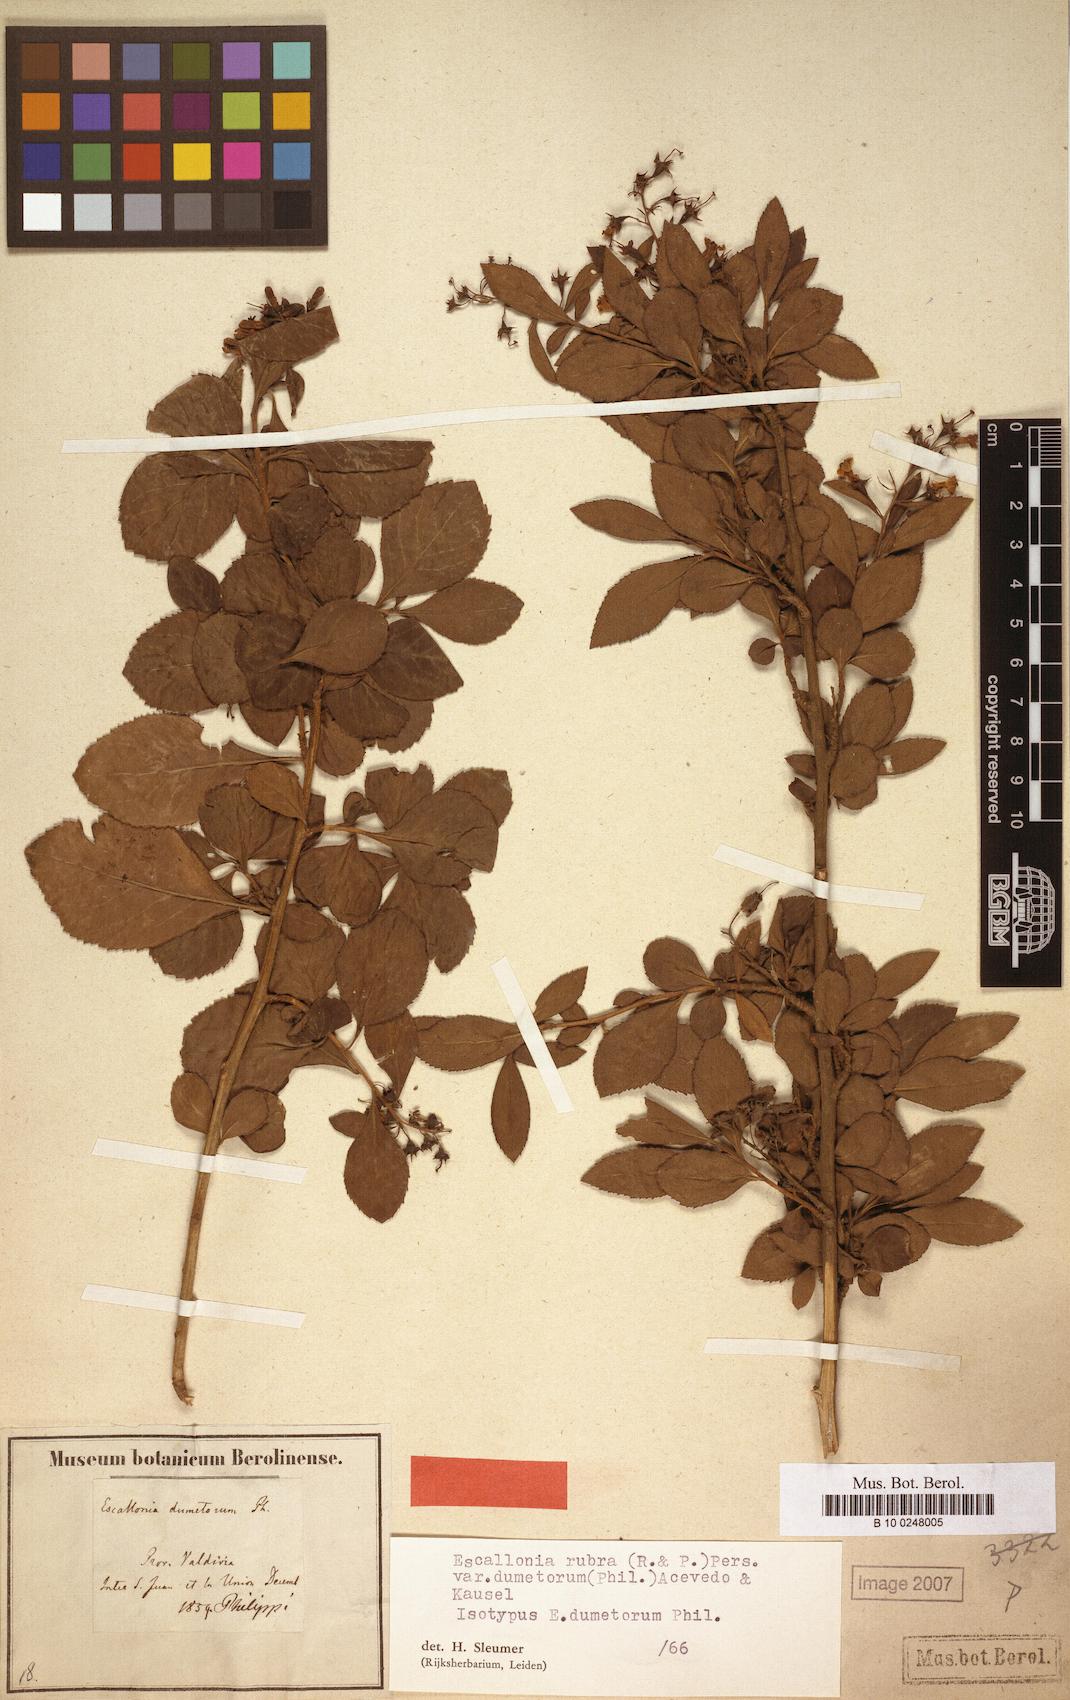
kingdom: Plantae
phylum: Tracheophyta
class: Magnoliopsida
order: Escalloniales
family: Escalloniaceae
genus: Escallonia
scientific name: Escallonia rubra
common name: Redclaws
